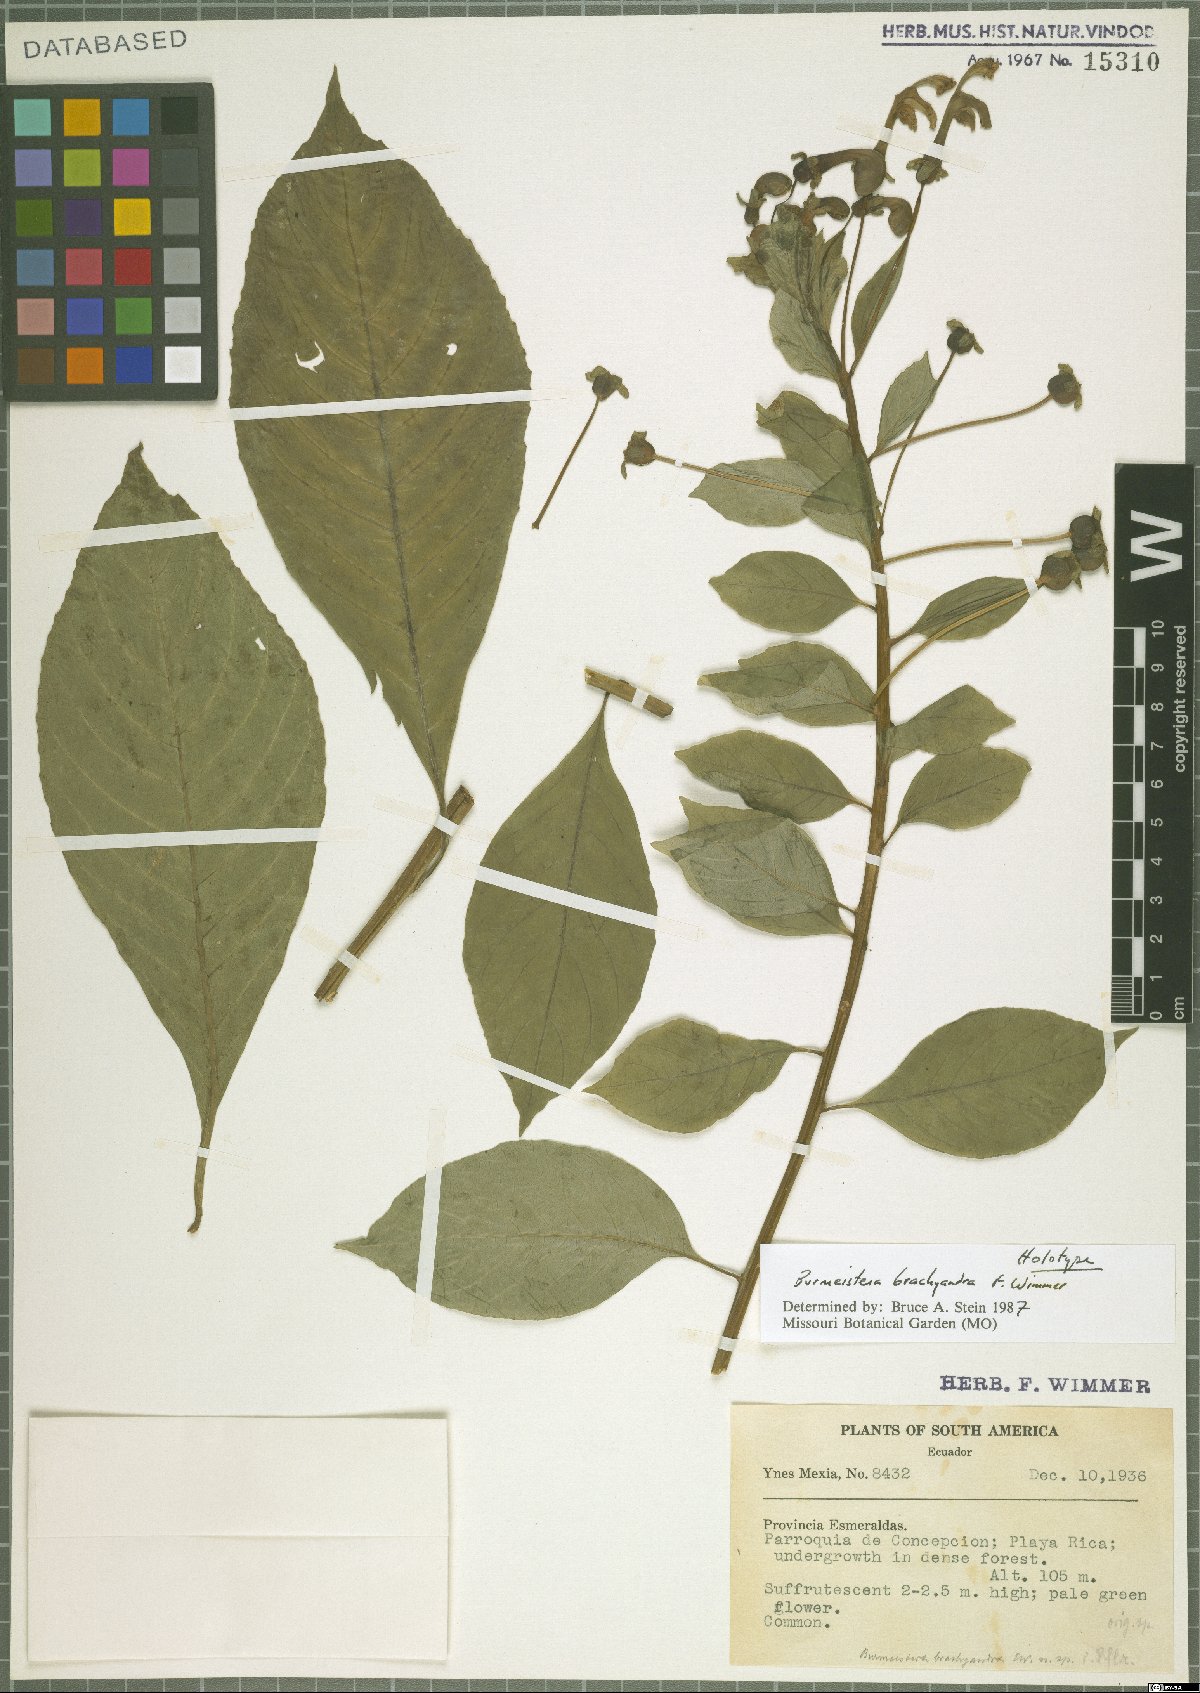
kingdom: Plantae
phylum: Tracheophyta
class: Magnoliopsida
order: Asterales
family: Campanulaceae
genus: Burmeistera
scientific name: Burmeistera brachyandra
